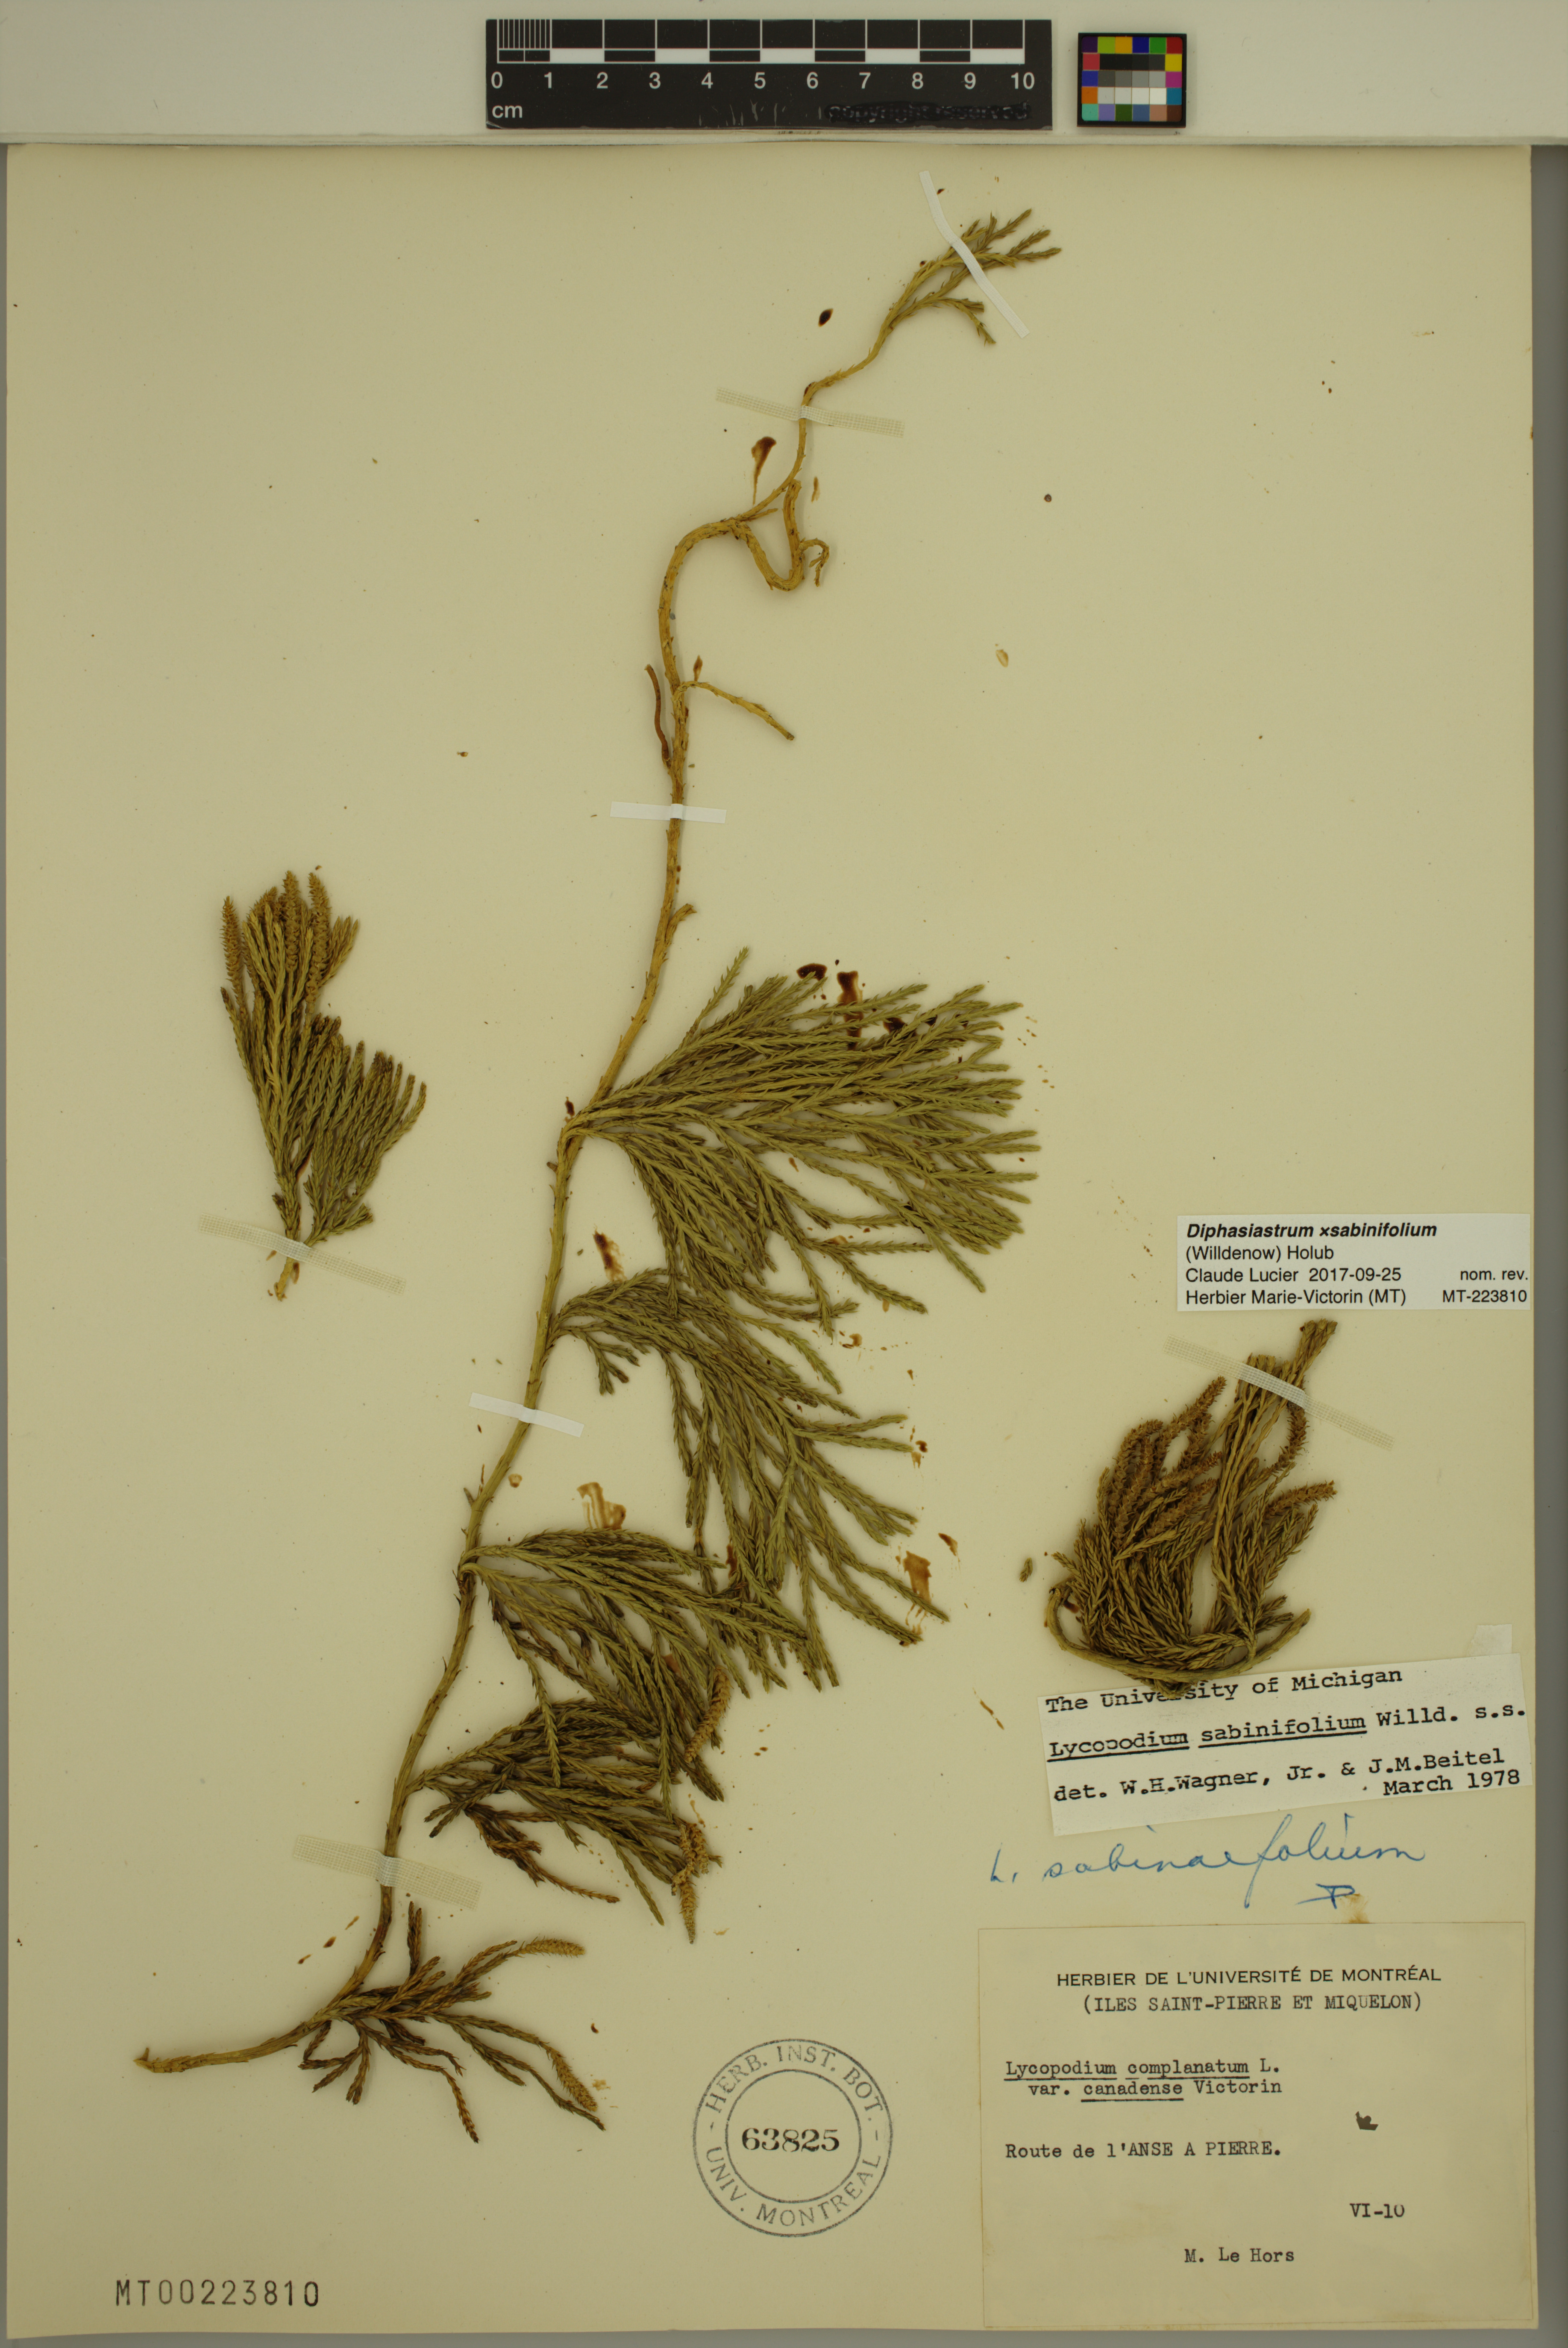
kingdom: Plantae
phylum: Tracheophyta
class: Lycopodiopsida
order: Lycopodiales
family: Lycopodiaceae
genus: Diphasiastrum
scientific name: Diphasiastrum sabinifolium
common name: Juniper clubmoss
